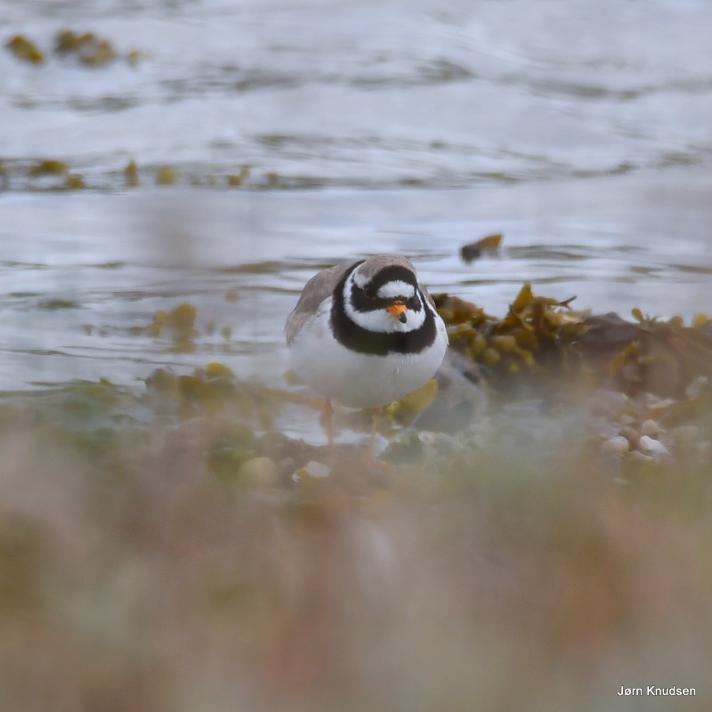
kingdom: Animalia
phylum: Chordata
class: Aves
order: Charadriiformes
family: Charadriidae
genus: Charadrius
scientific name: Charadrius hiaticula
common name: Stor præstekrave
